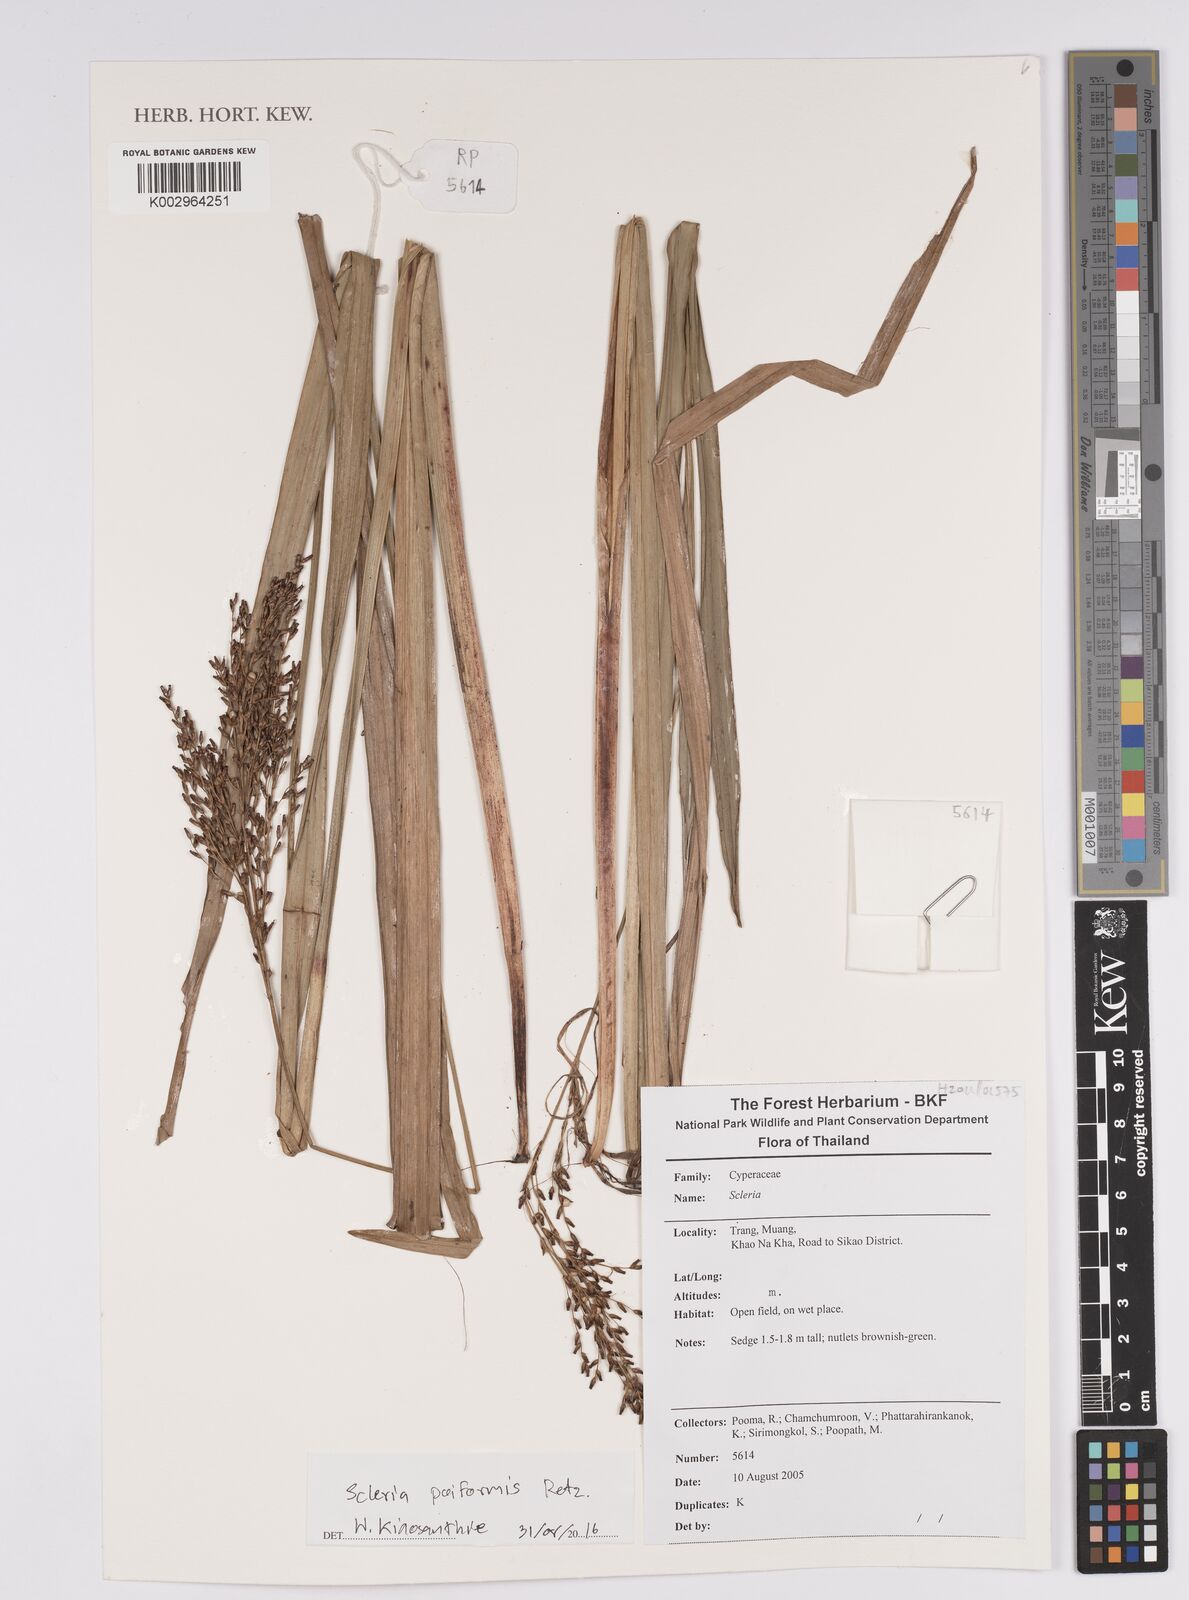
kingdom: Plantae
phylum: Tracheophyta
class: Liliopsida
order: Poales
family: Cyperaceae
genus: Scleria
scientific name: Scleria poiformis
